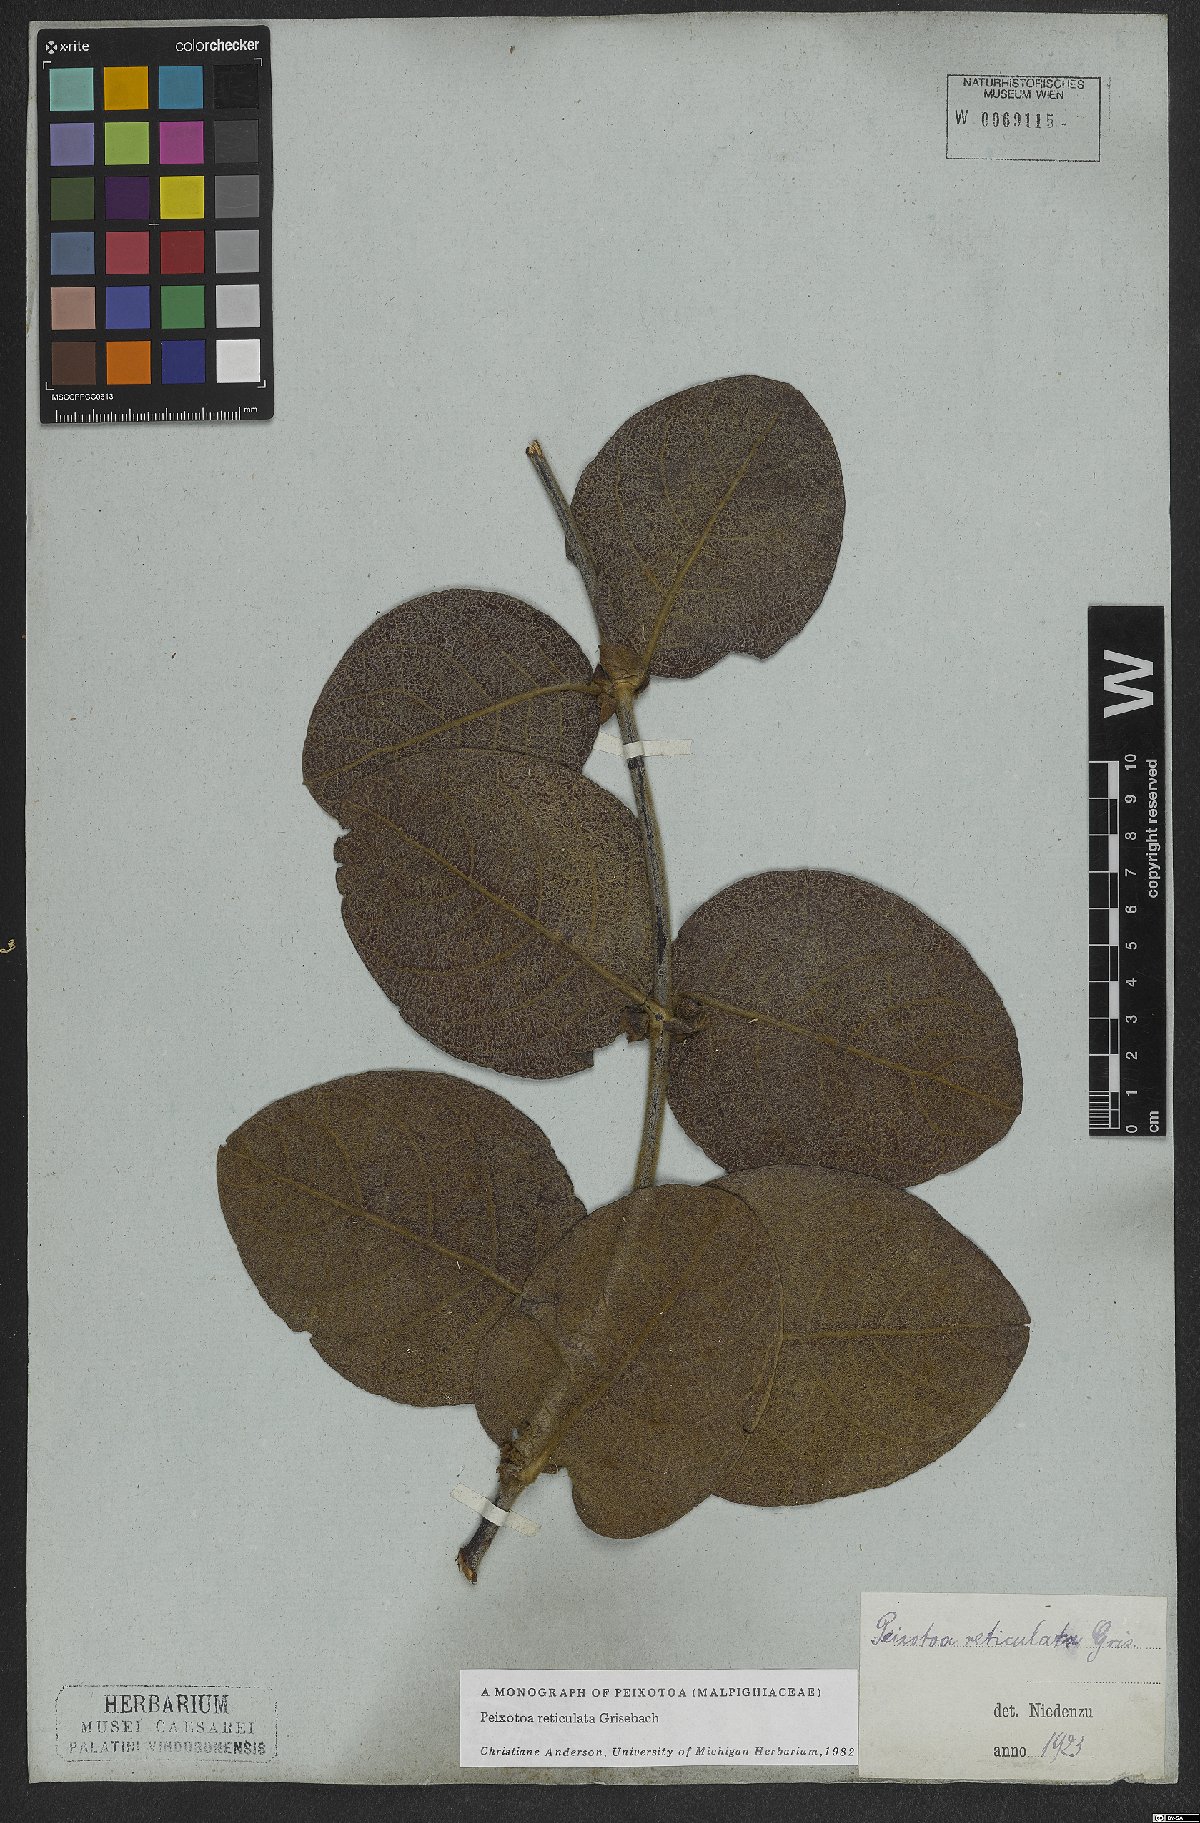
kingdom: Plantae
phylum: Tracheophyta
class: Magnoliopsida
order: Malpighiales
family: Malpighiaceae
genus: Peixotoa
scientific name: Peixotoa reticulata
